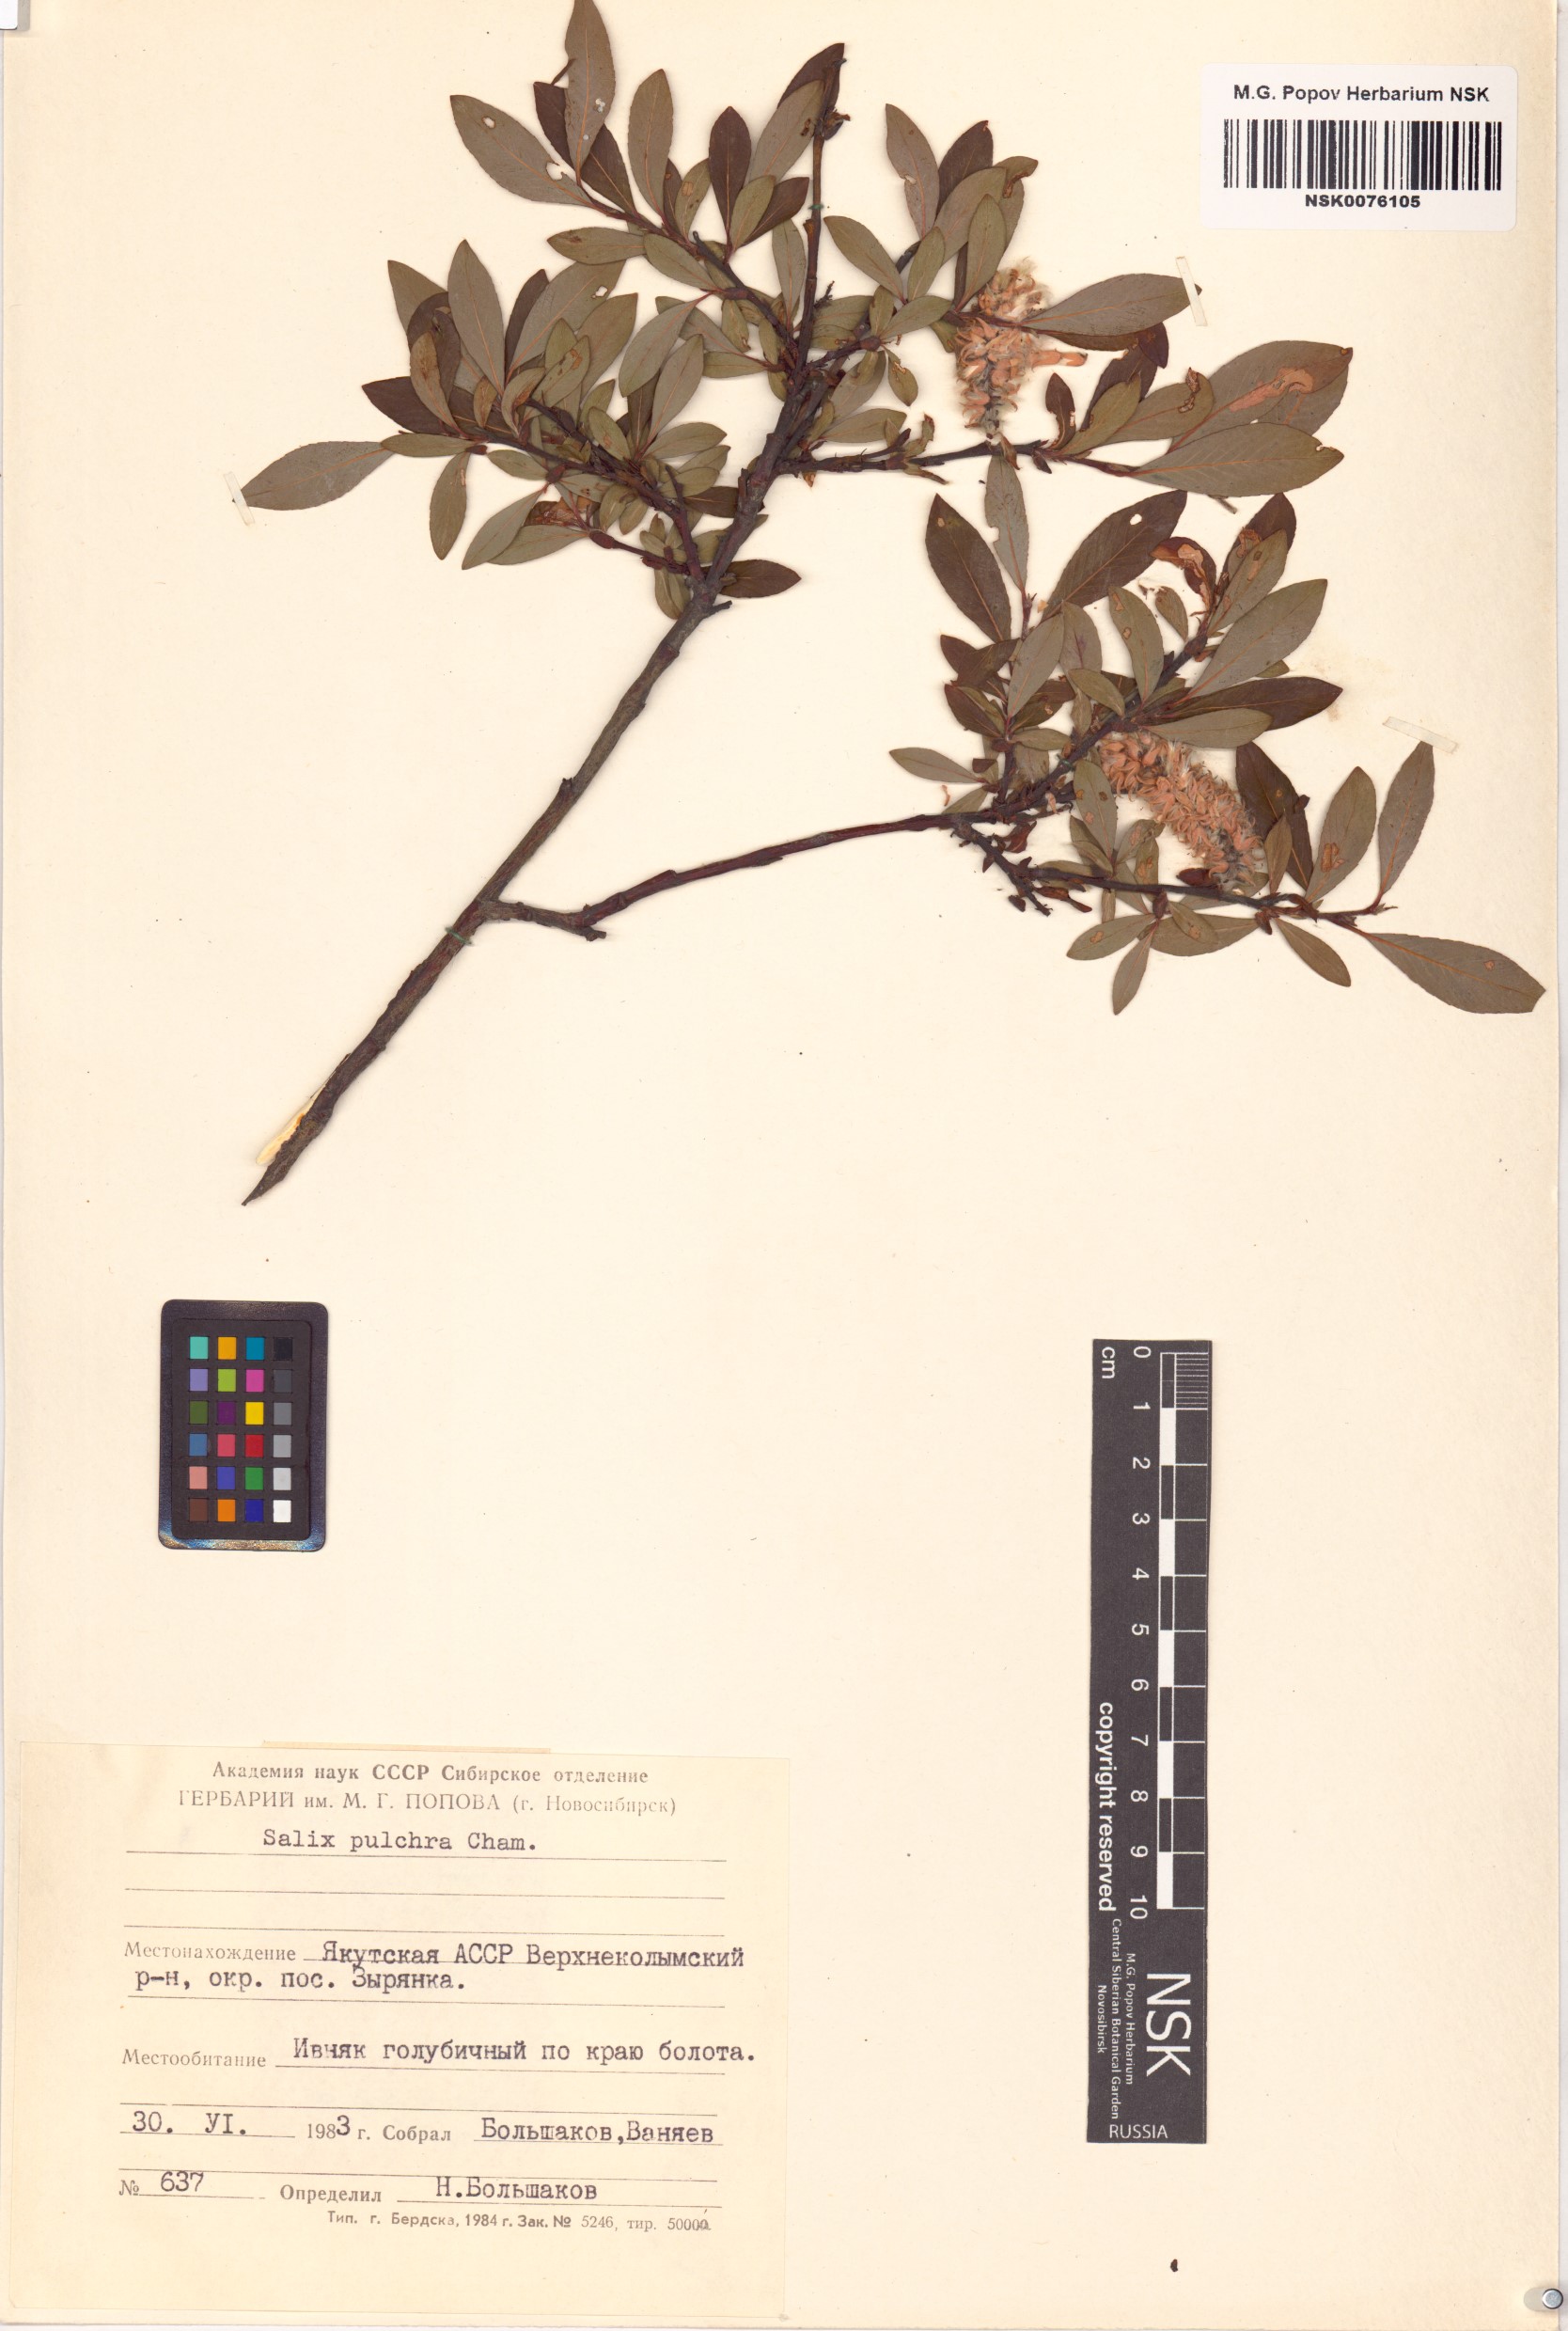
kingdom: Plantae
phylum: Tracheophyta
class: Magnoliopsida
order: Malpighiales
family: Salicaceae
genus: Salix
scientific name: Salix pulchra
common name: Diamond-leaved willow
